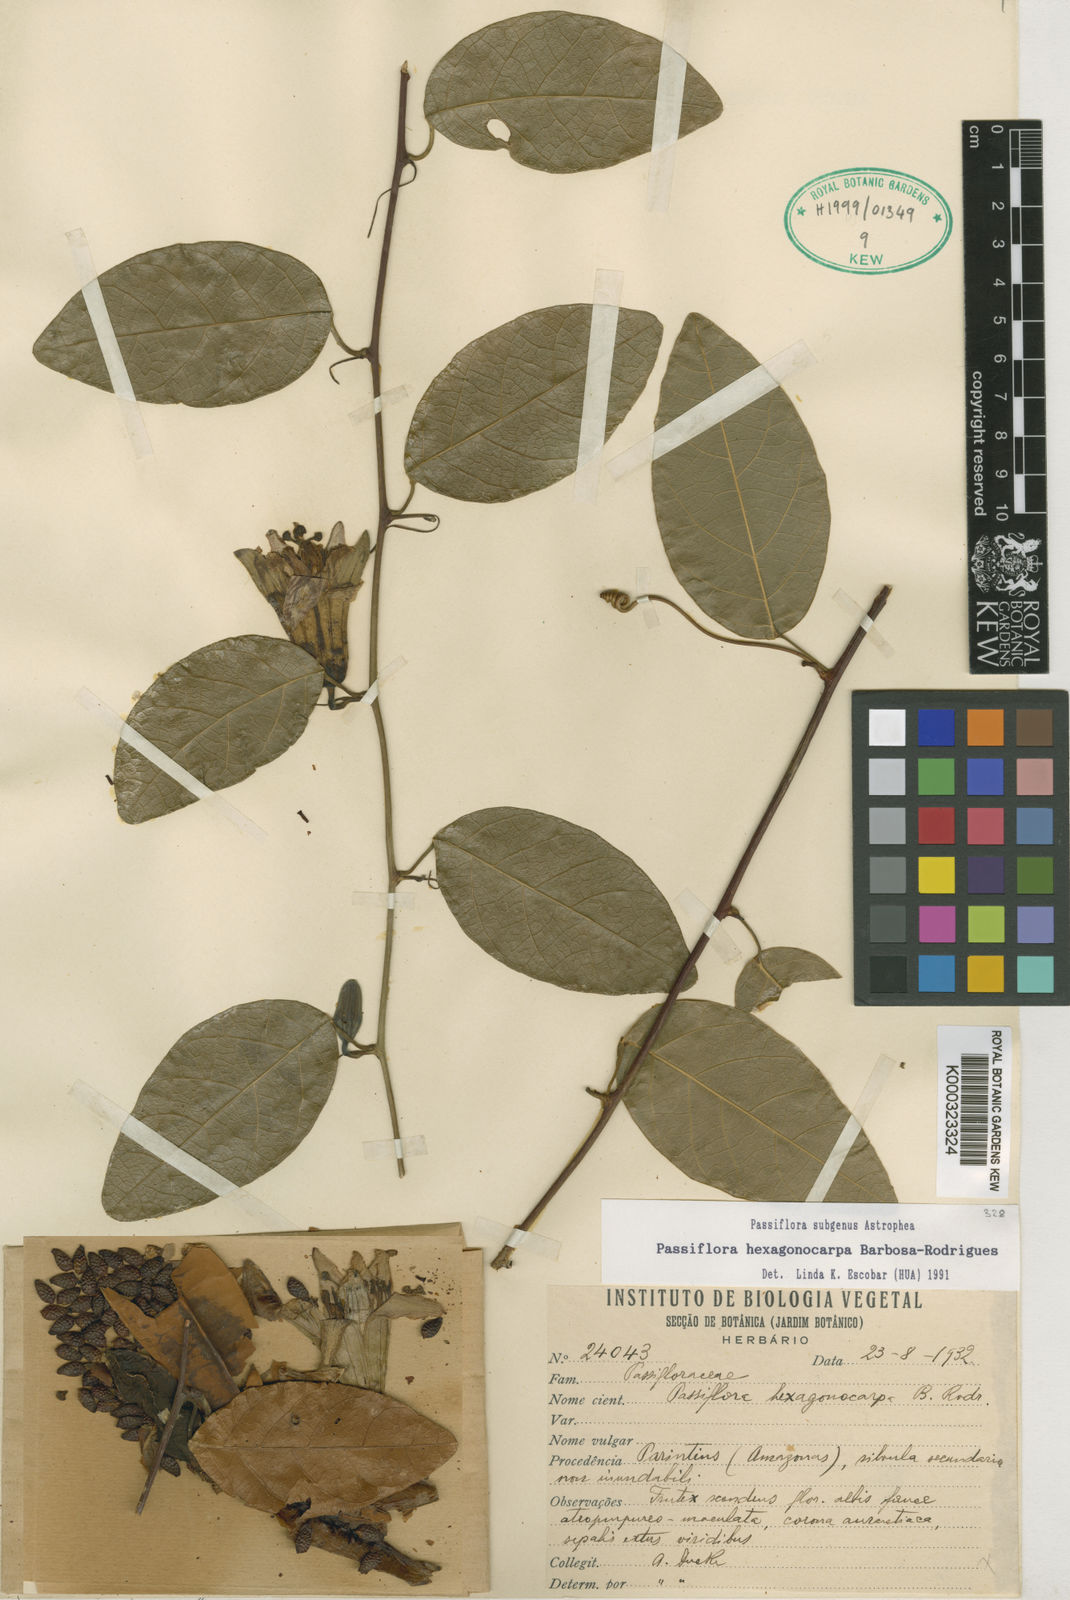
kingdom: Plantae
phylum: Tracheophyta
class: Magnoliopsida
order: Malpighiales
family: Passifloraceae
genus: Passiflora
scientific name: Passiflora hexagonocarpa
